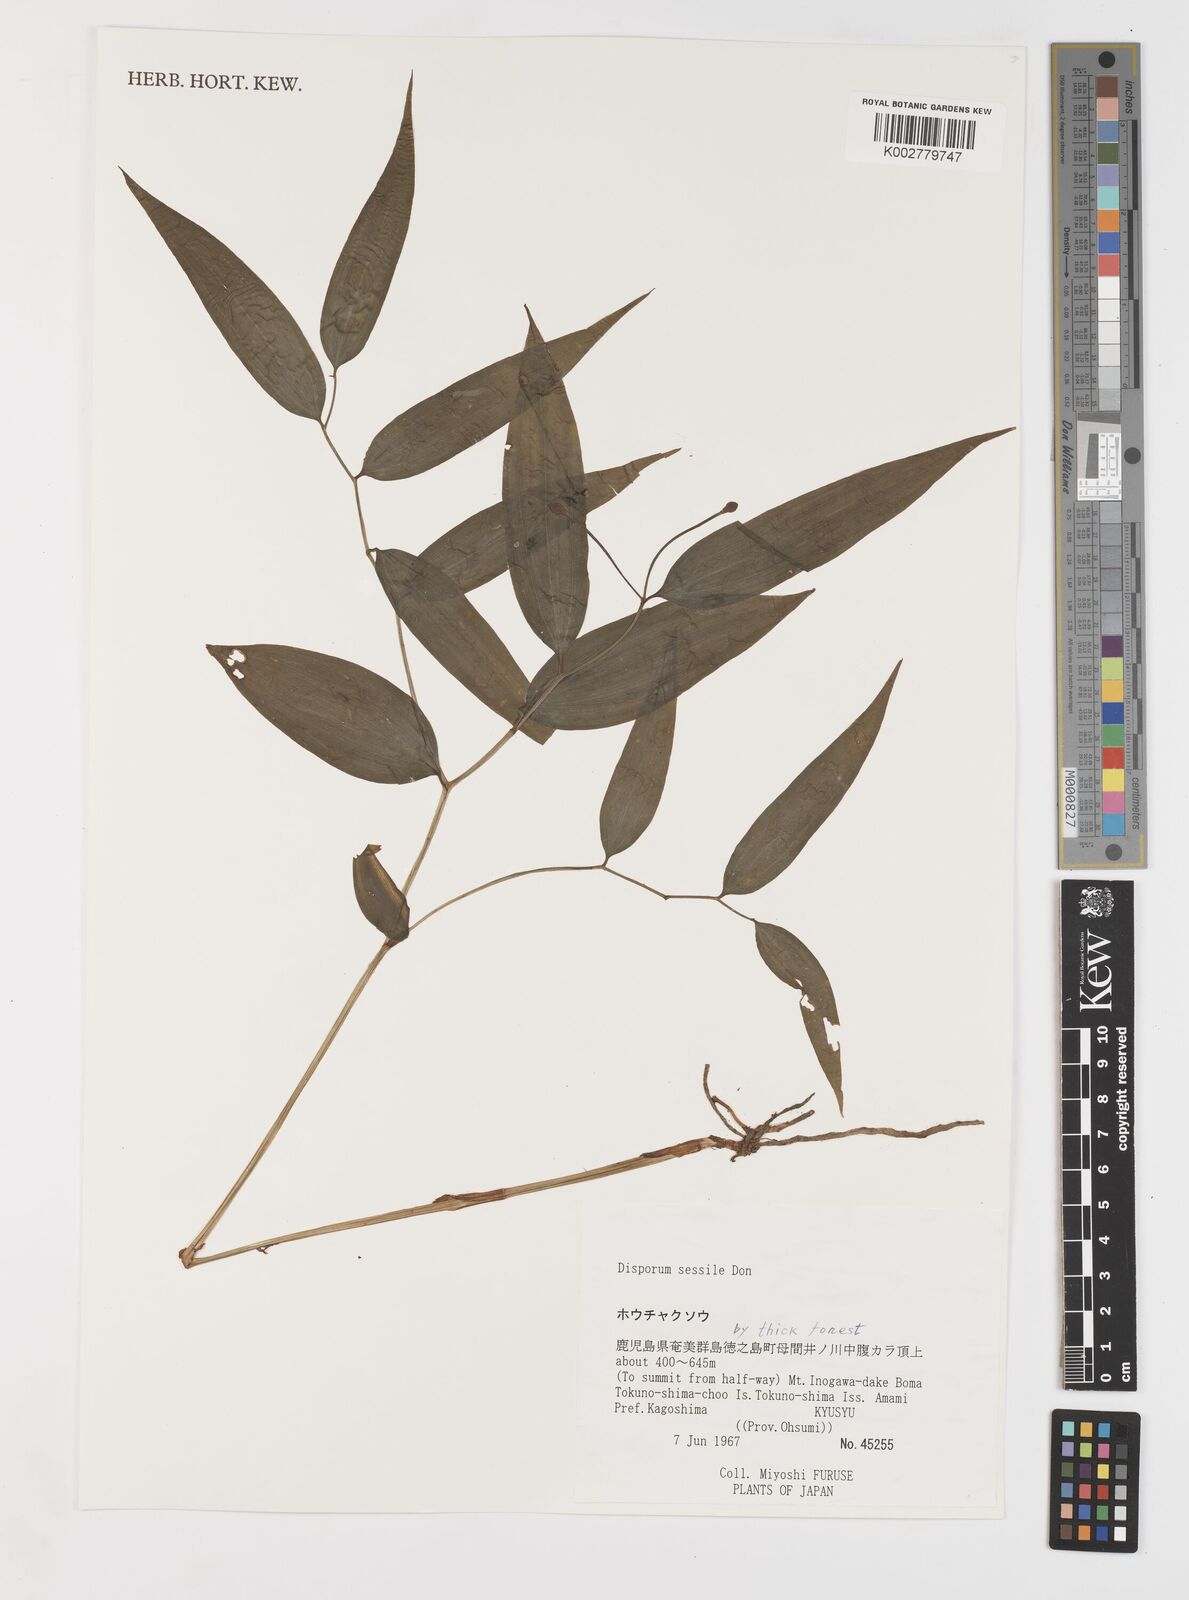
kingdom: Plantae
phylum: Tracheophyta
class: Liliopsida
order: Liliales
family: Colchicaceae
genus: Disporum
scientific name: Disporum sessile
